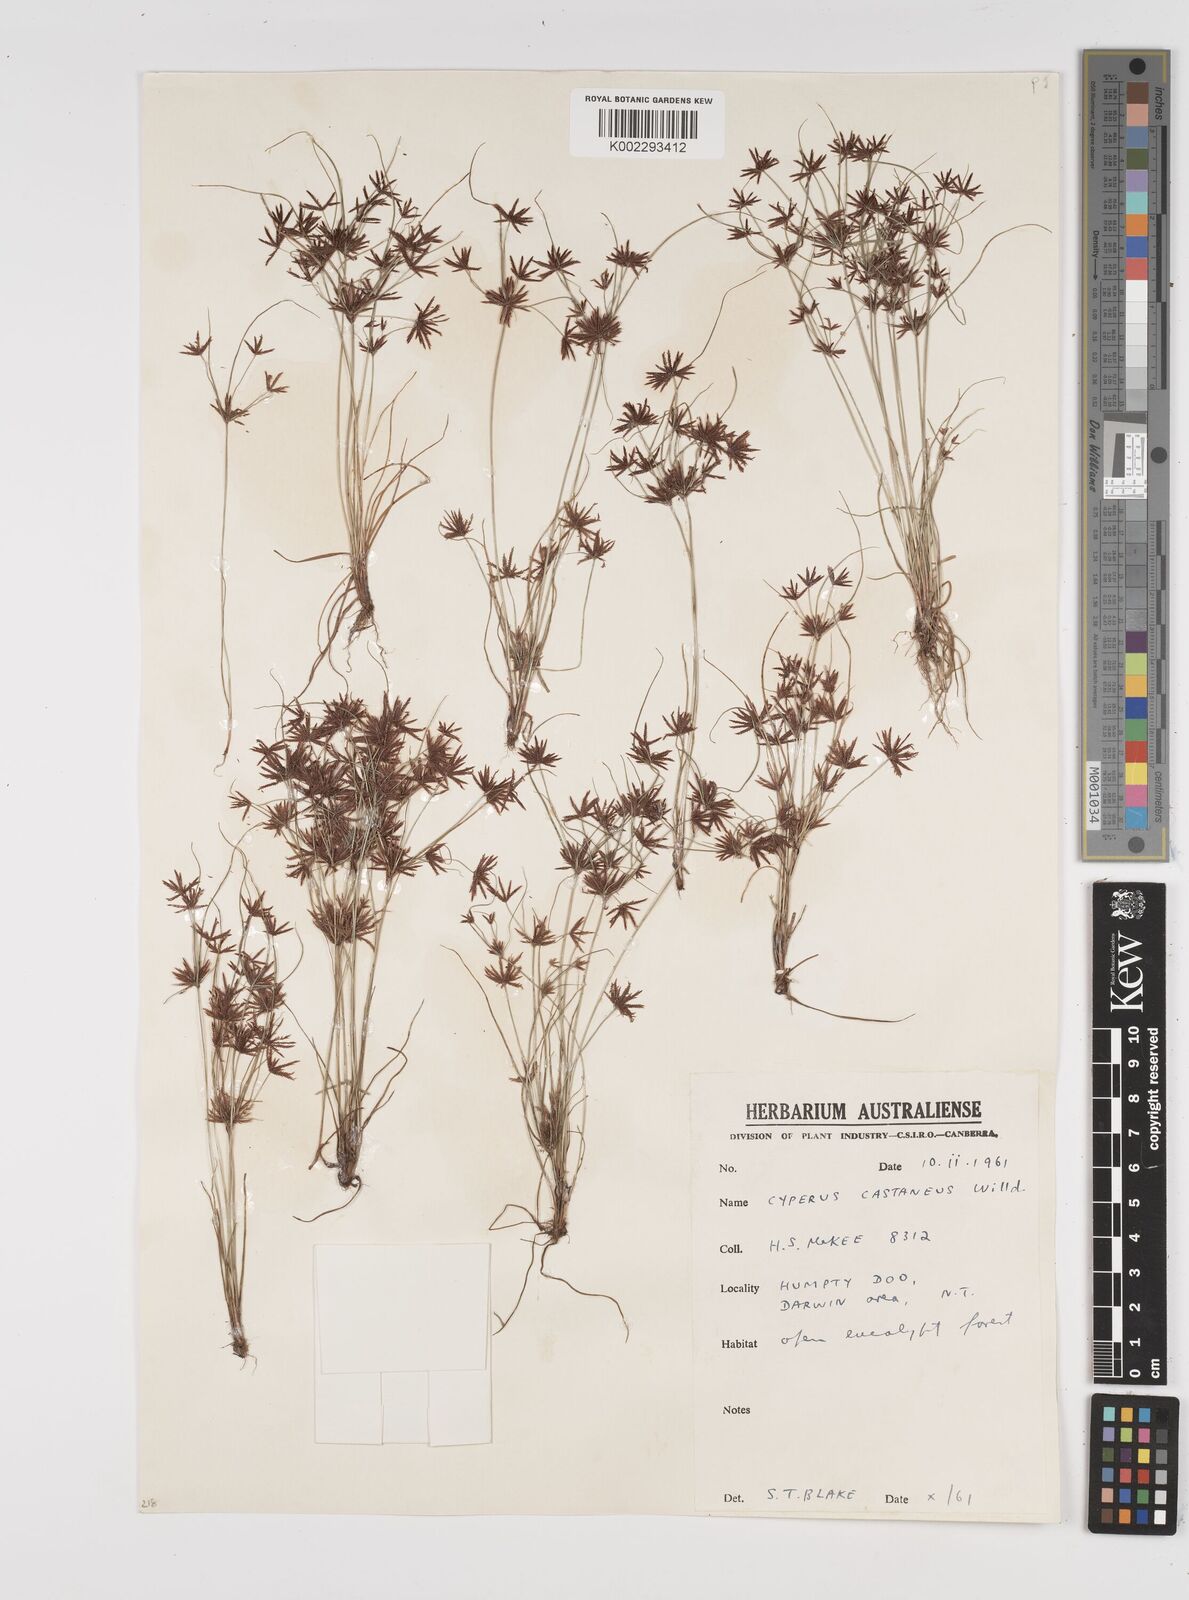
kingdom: Plantae
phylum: Tracheophyta
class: Liliopsida
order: Poales
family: Cyperaceae
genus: Cyperus
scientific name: Cyperus castaneus
